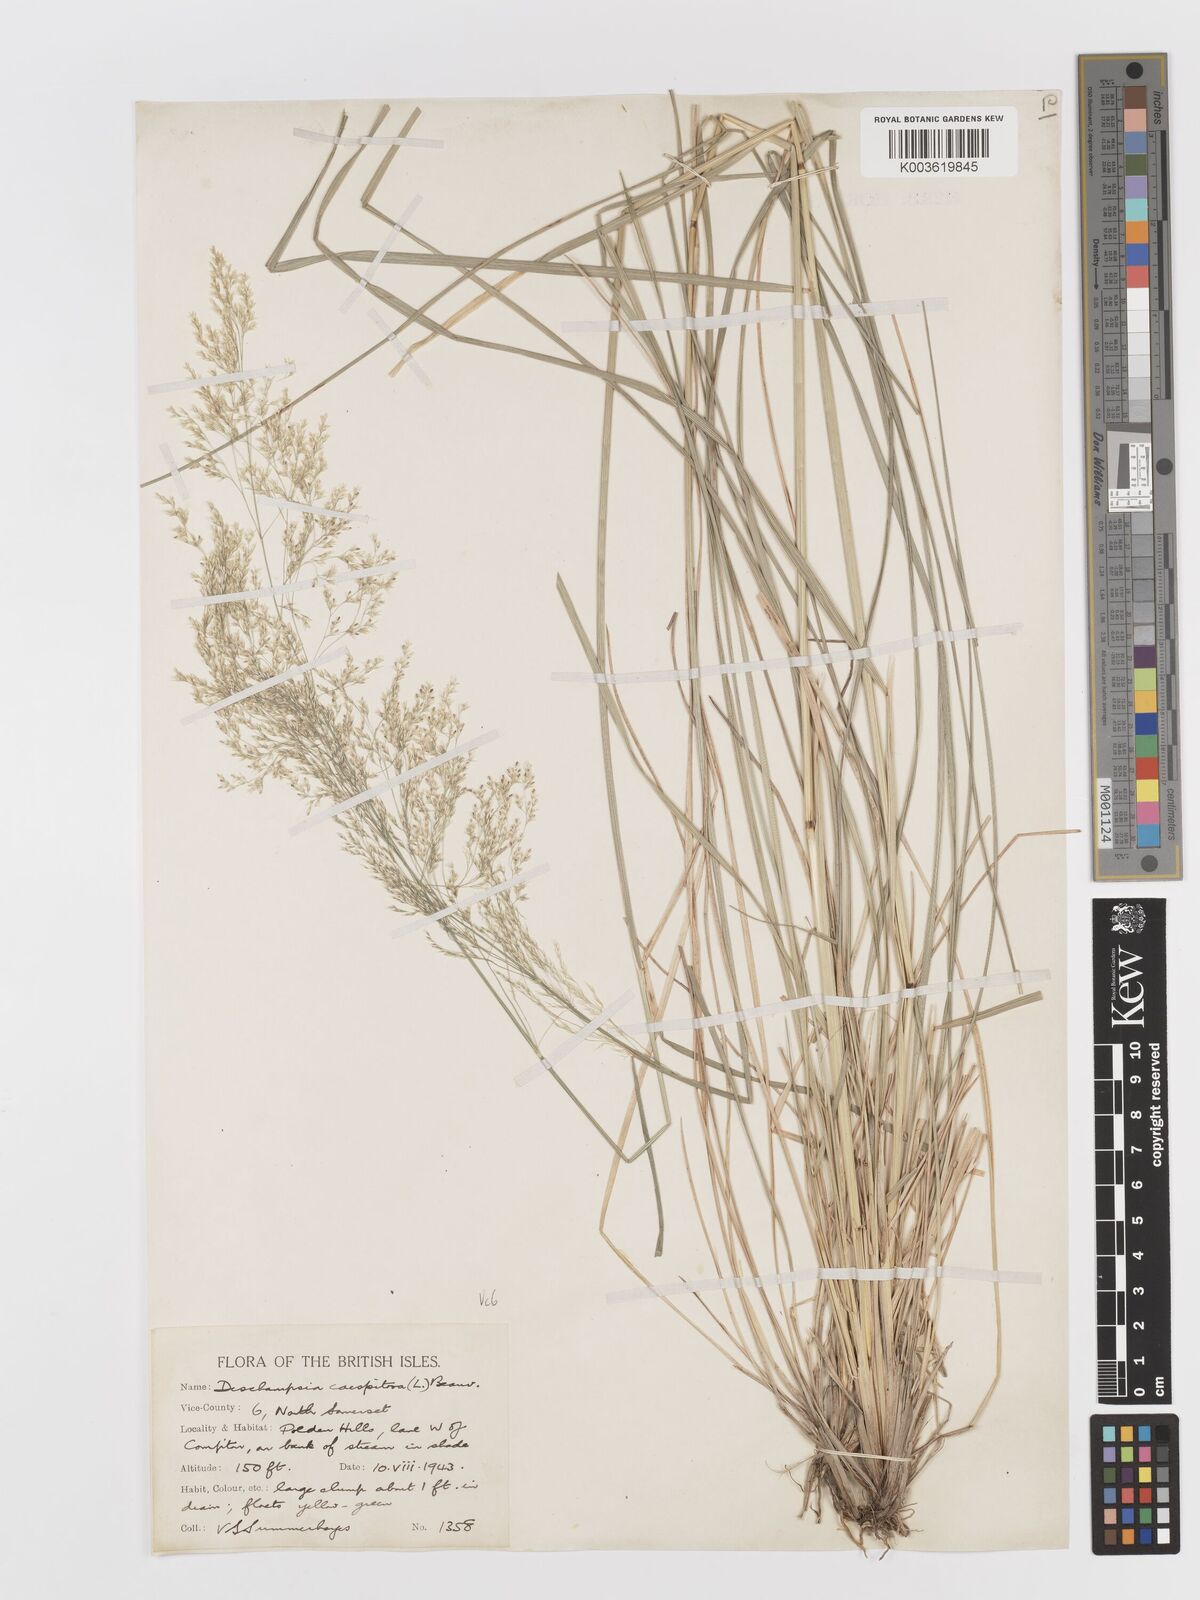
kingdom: Plantae
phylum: Tracheophyta
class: Liliopsida
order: Poales
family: Poaceae
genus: Deschampsia
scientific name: Deschampsia cespitosa
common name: Tufted hair-grass
